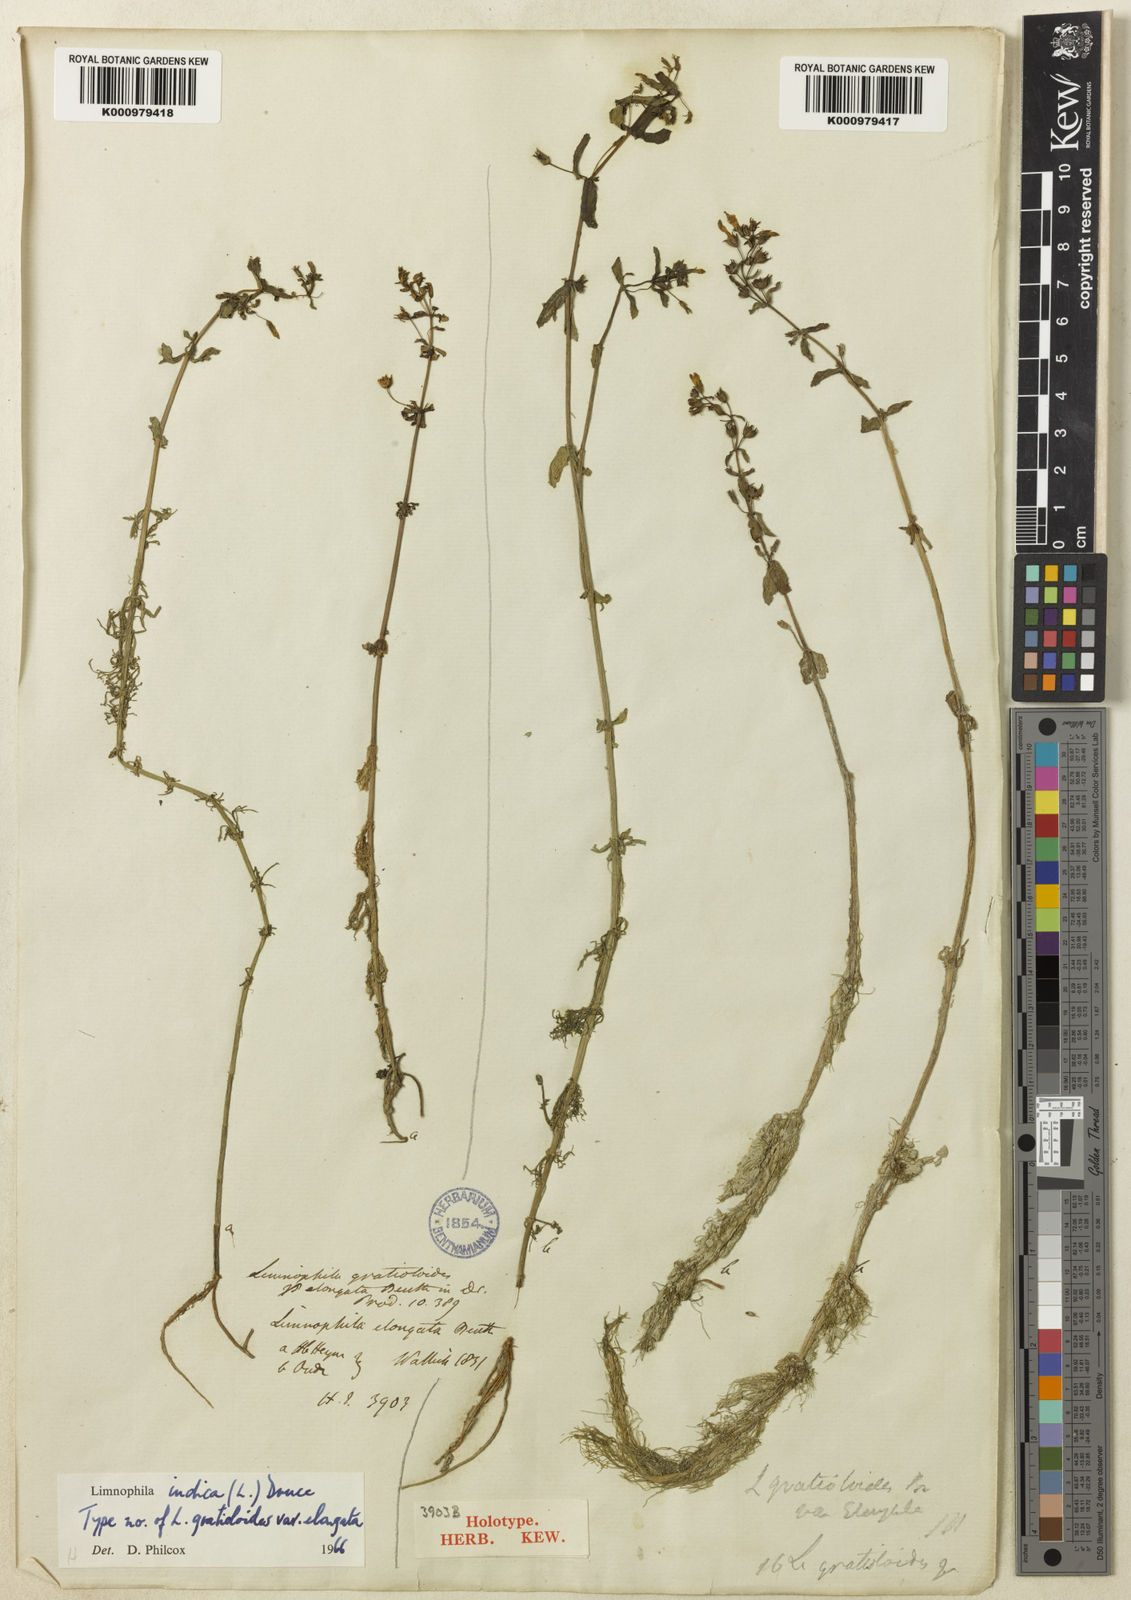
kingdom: Plantae
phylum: Tracheophyta
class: Magnoliopsida
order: Lamiales
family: Plantaginaceae
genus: Limnophila
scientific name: Limnophila indica
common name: Indian marshweed
